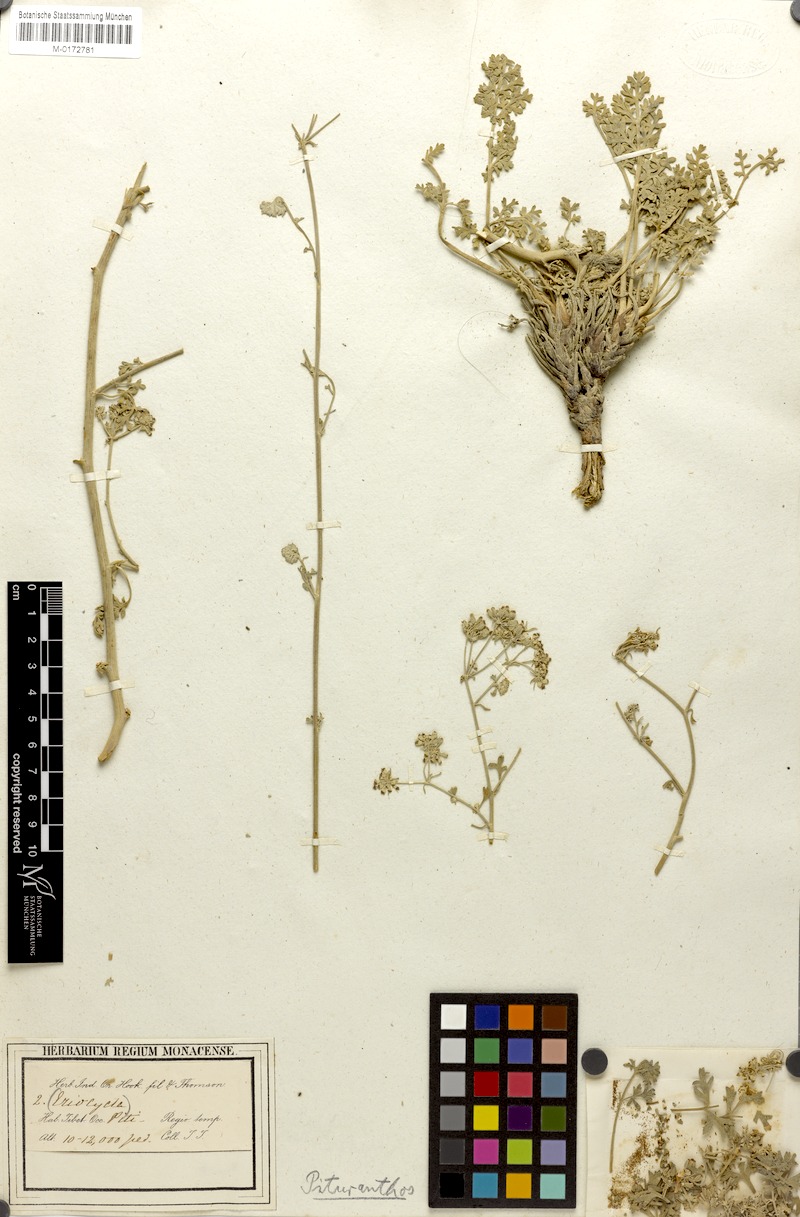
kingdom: Plantae
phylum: Tracheophyta
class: Magnoliopsida
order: Apiales
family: Apiaceae
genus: Seseli
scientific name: Seseli thomsonii
